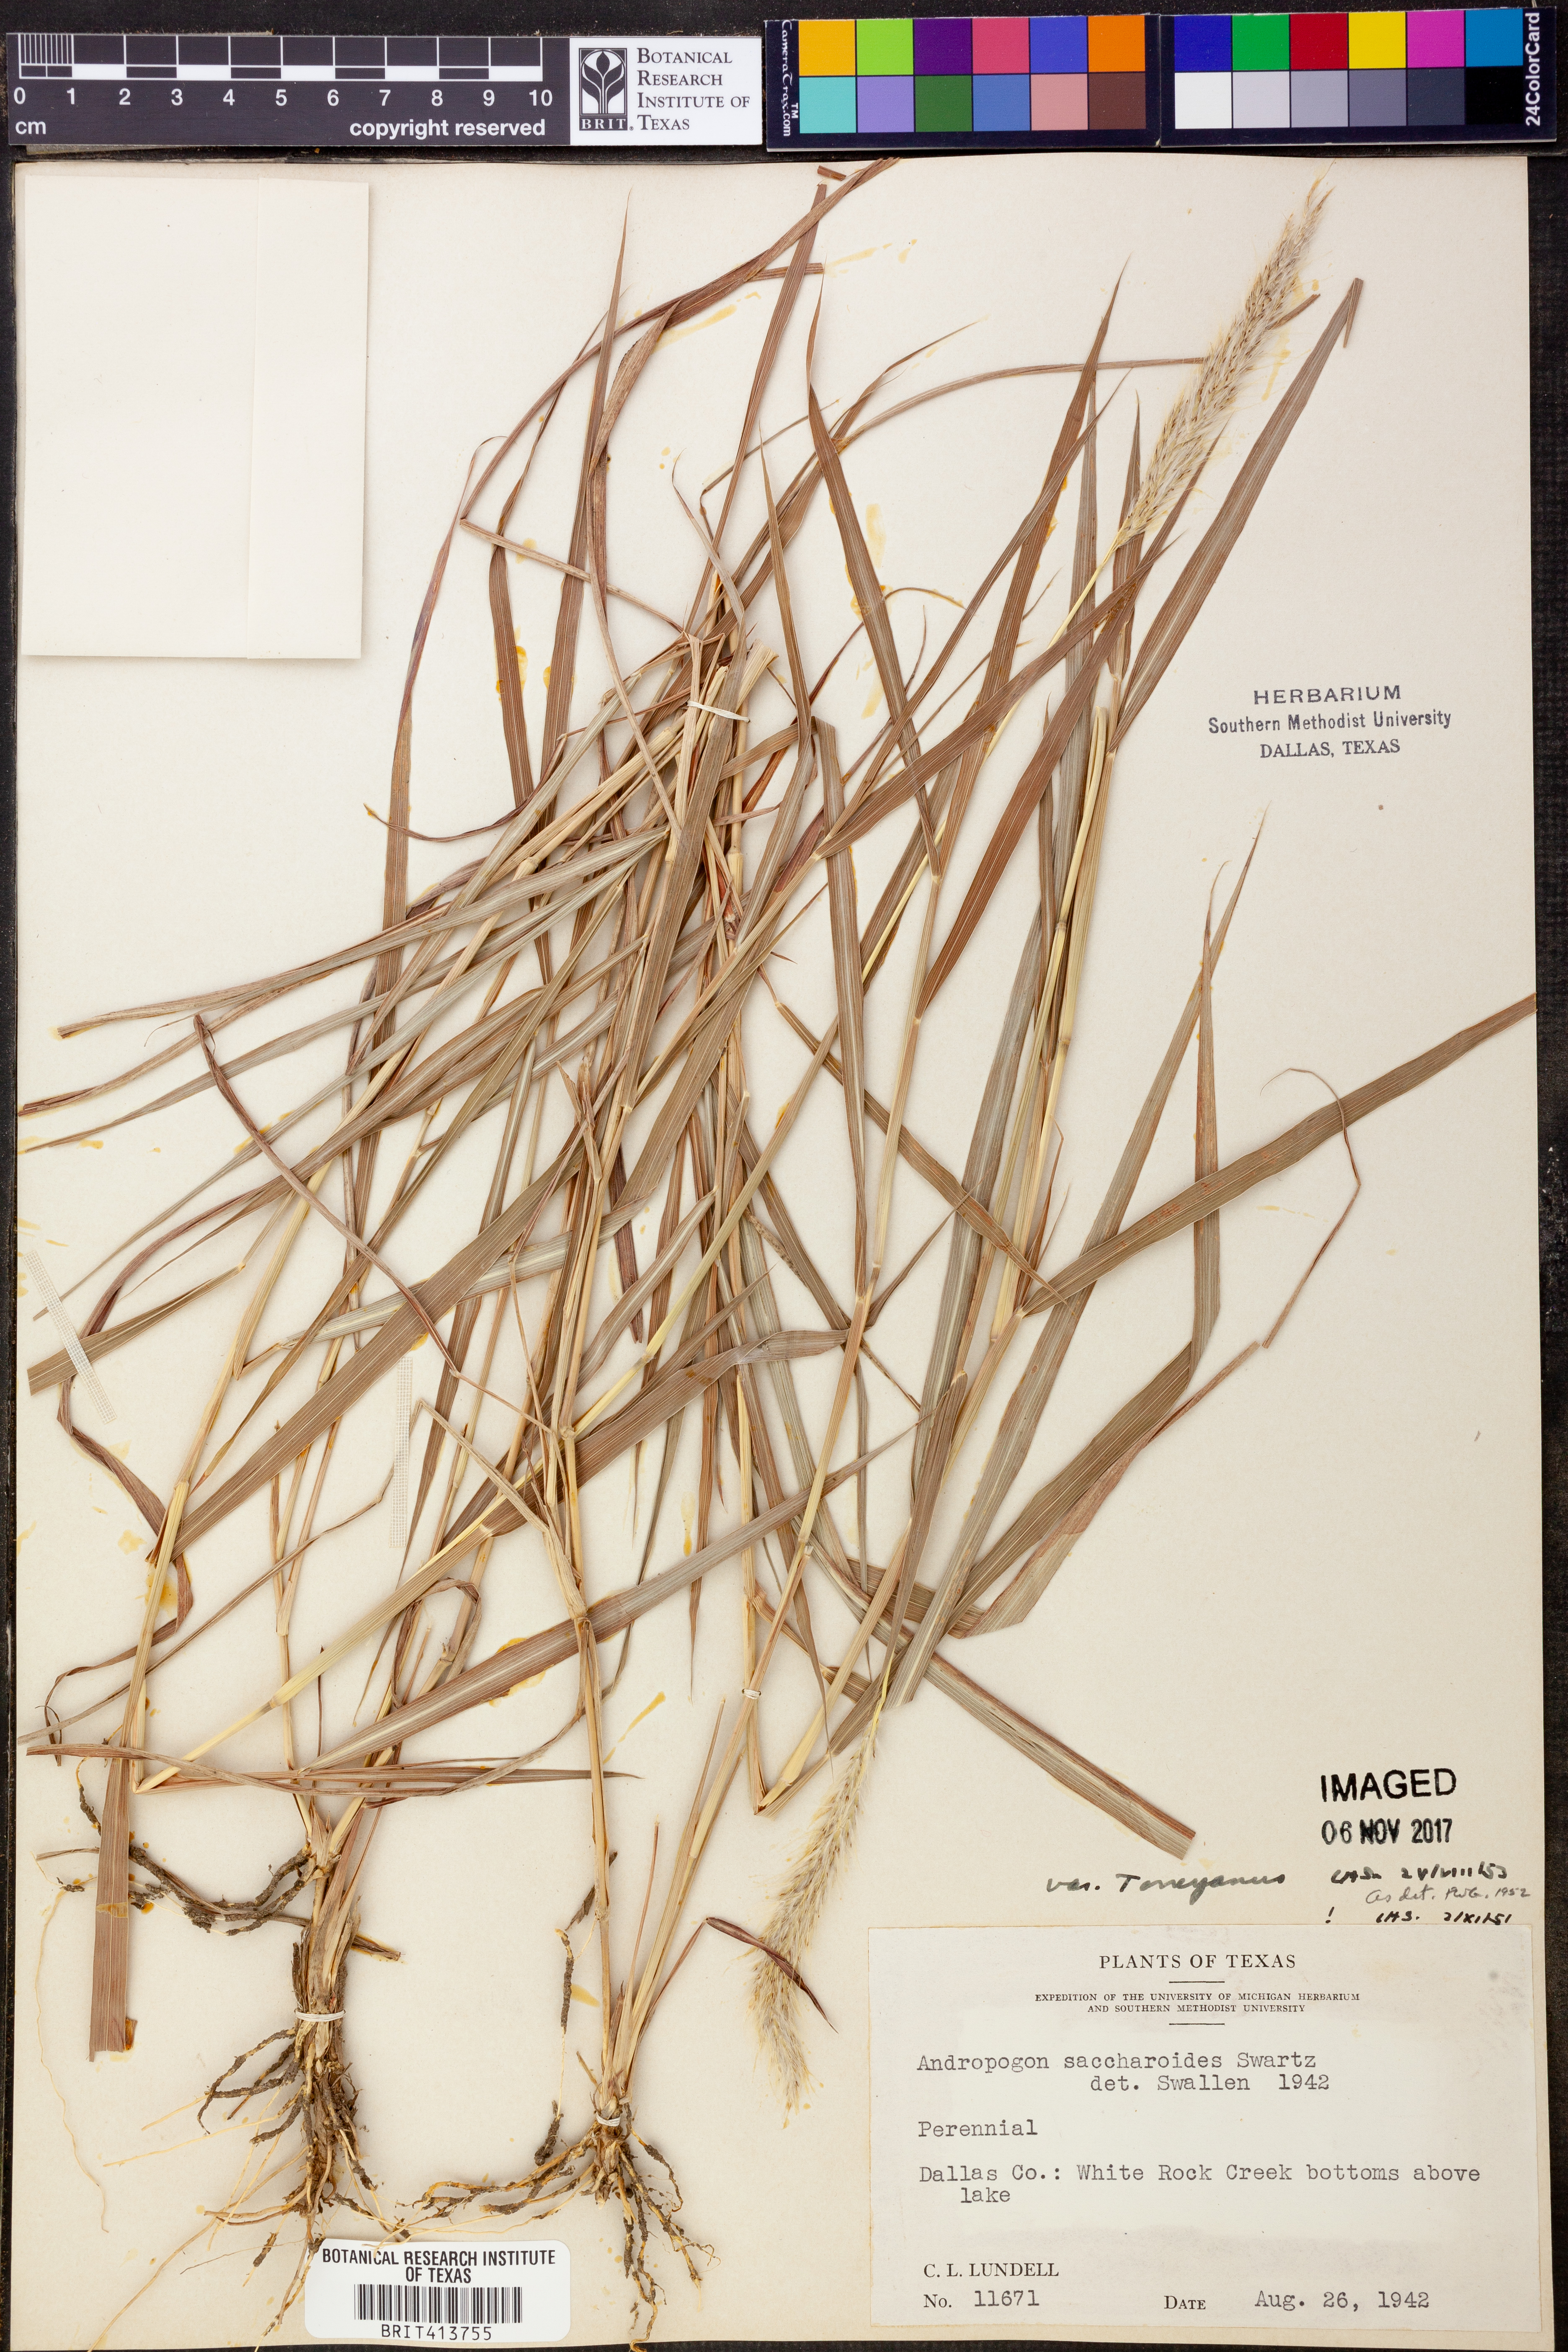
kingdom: Plantae
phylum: Tracheophyta
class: Liliopsida
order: Poales
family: Poaceae
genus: Bothriochloa
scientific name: Bothriochloa torreyana
